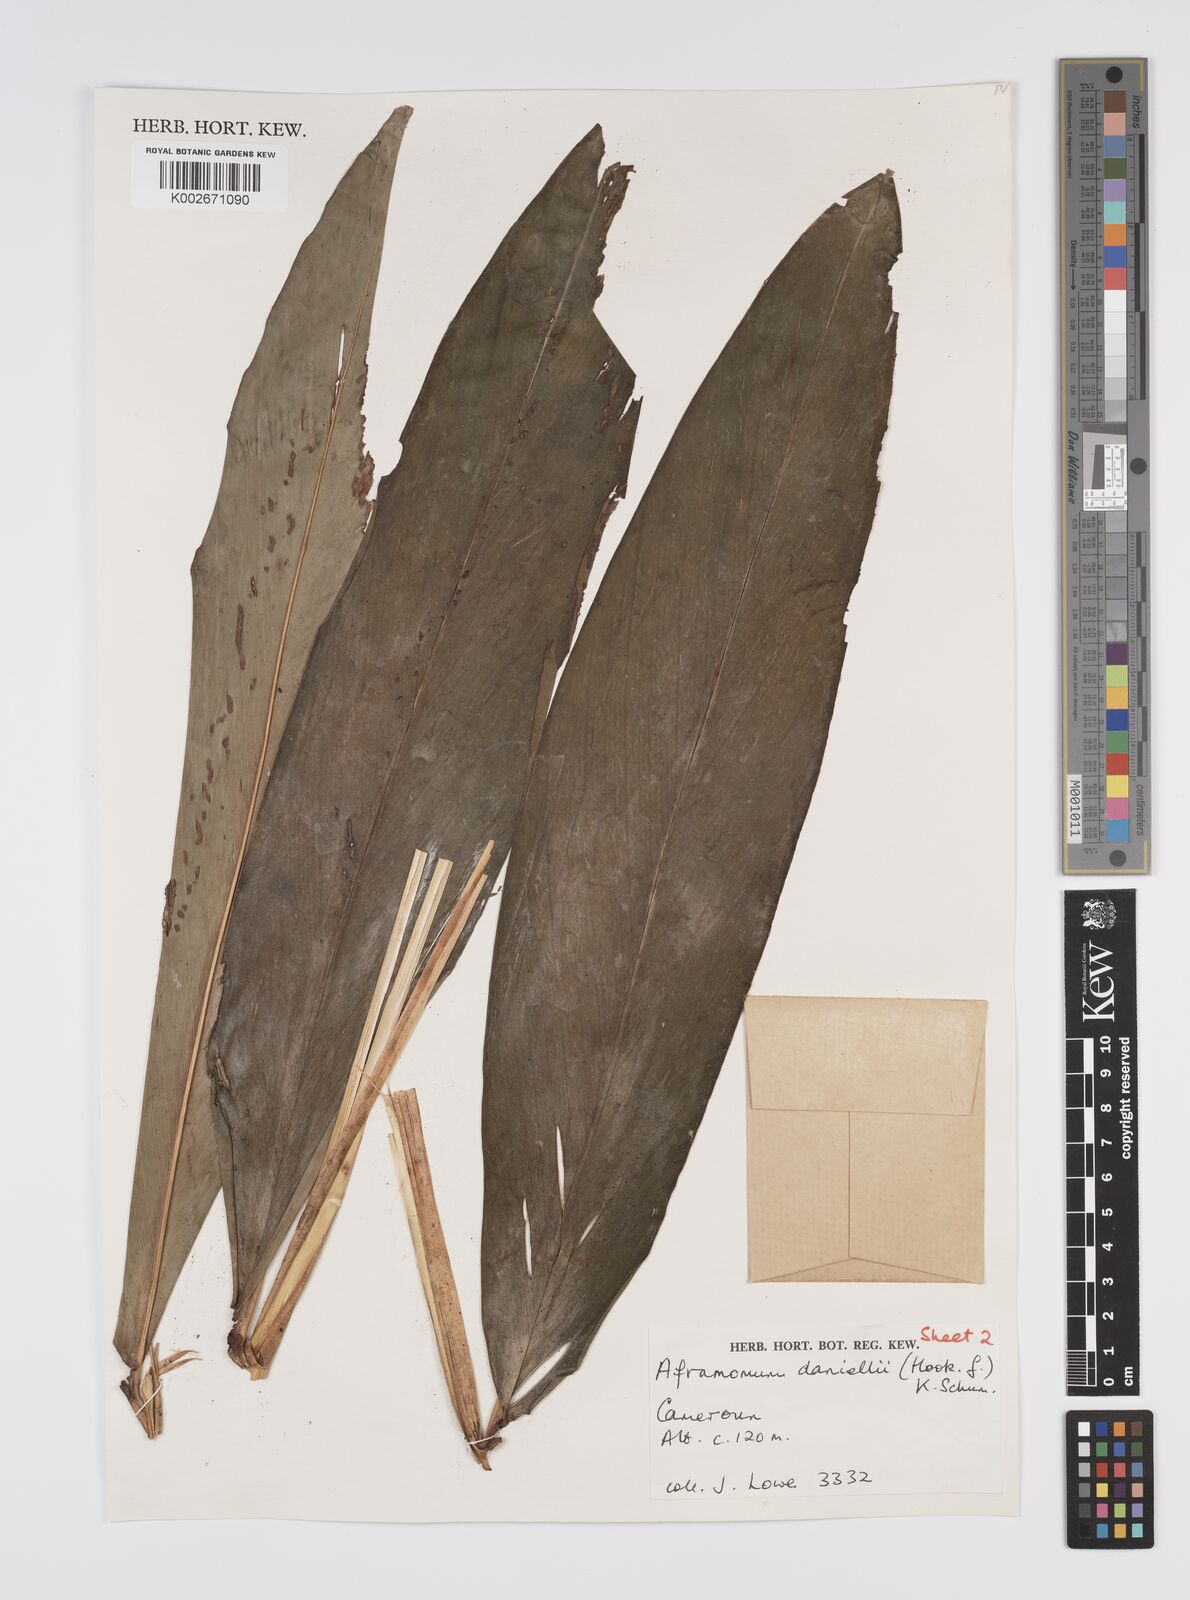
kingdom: Plantae
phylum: Tracheophyta
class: Liliopsida
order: Zingiberales
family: Zingiberaceae
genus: Aframomum
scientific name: Aframomum daniellii
